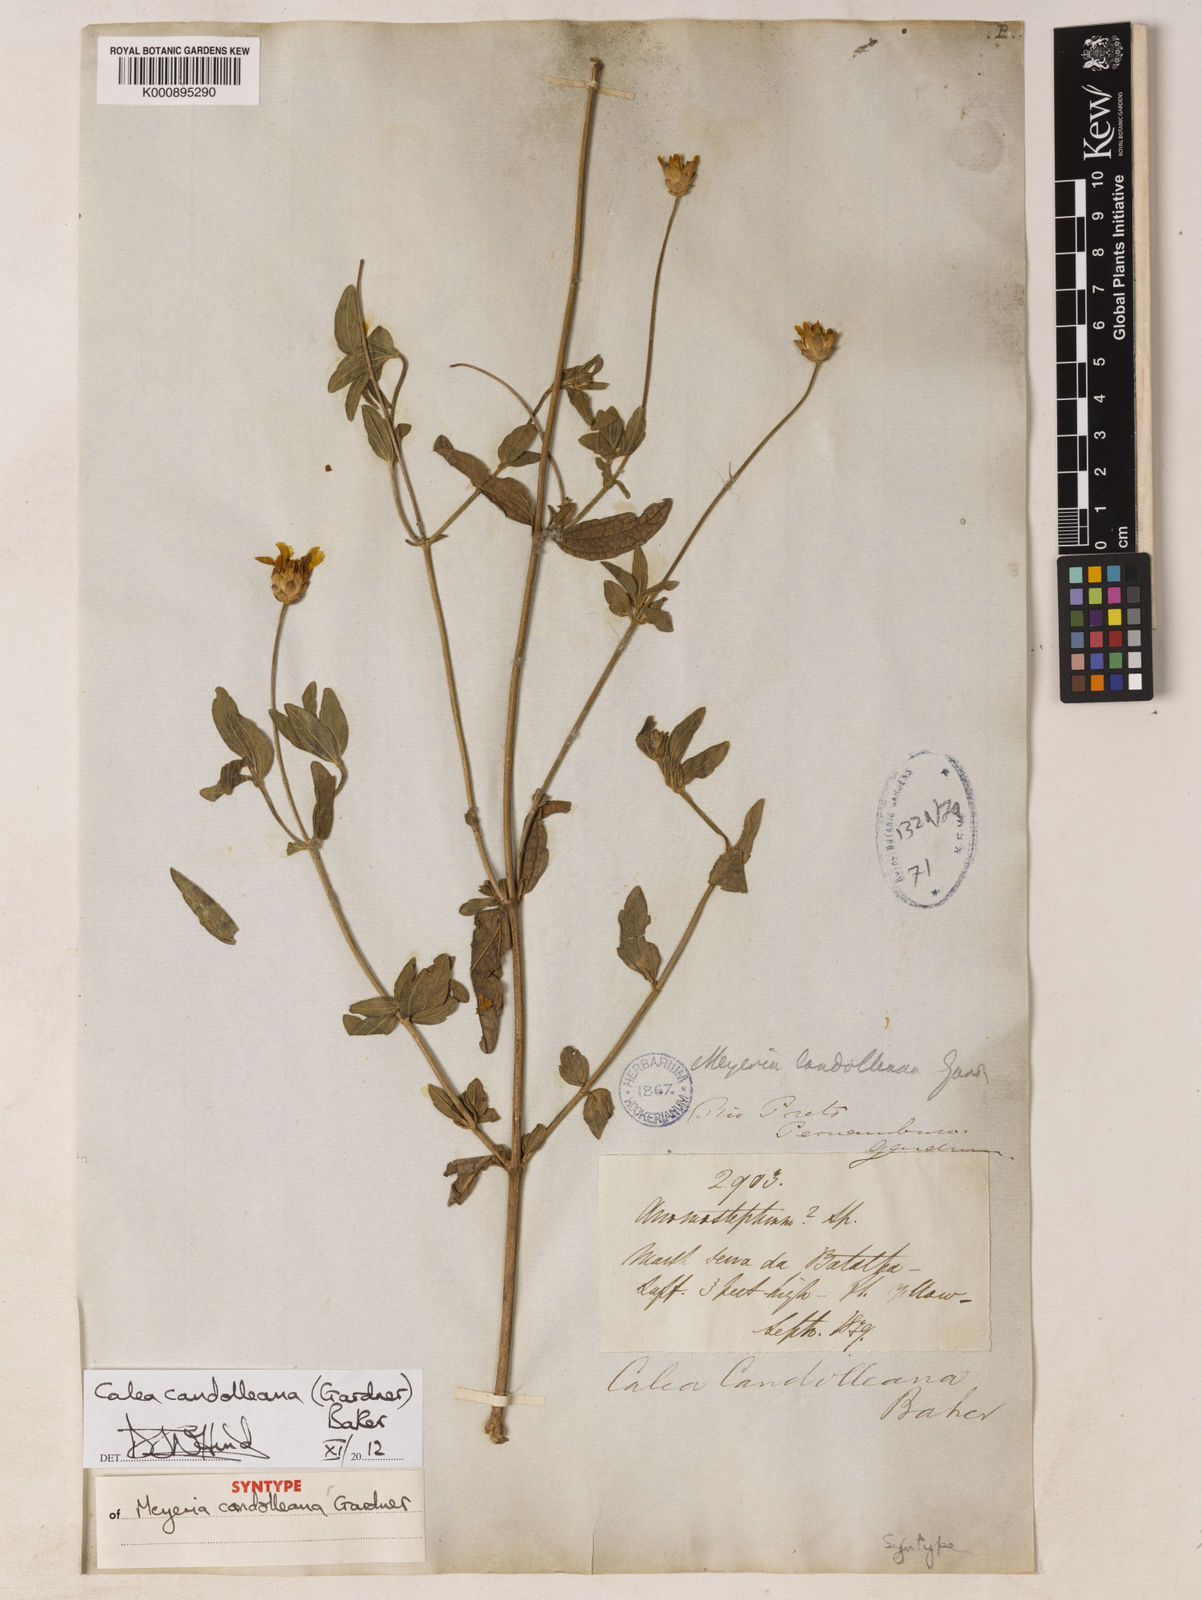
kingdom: Plantae
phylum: Tracheophyta
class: Magnoliopsida
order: Asterales
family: Asteraceae
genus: Calea
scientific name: Calea candolleana
